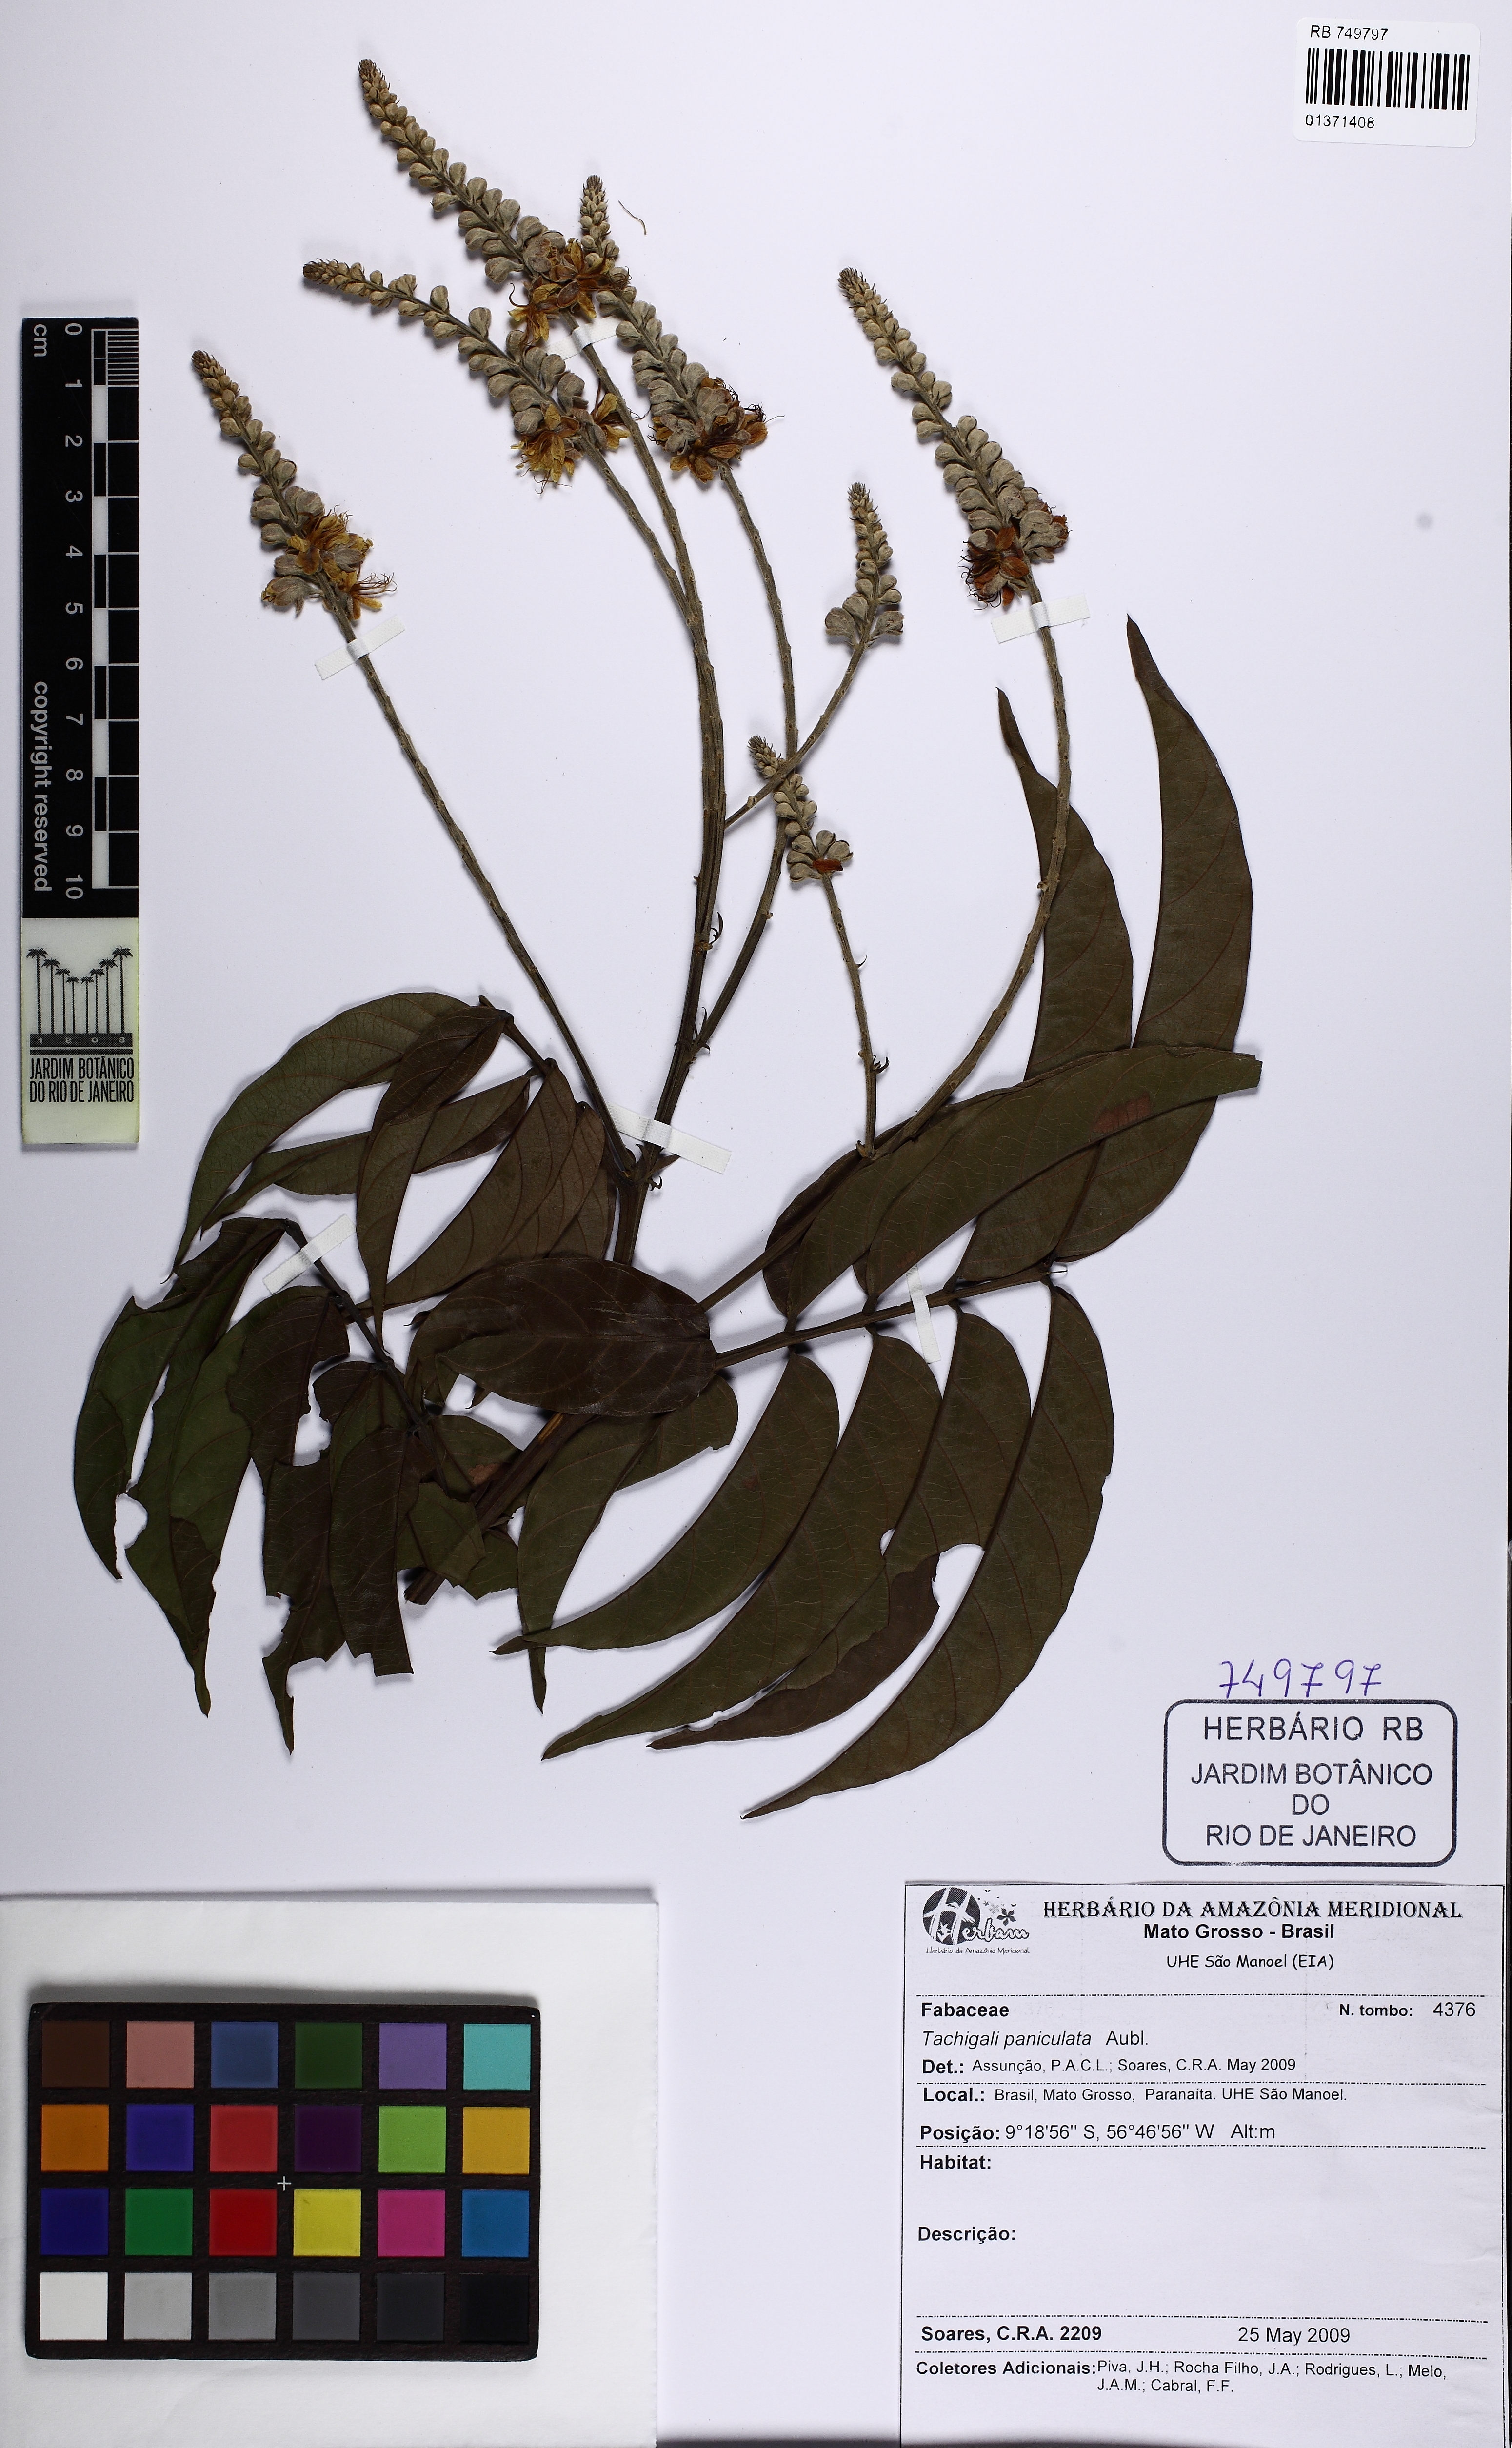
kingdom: Plantae
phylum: Tracheophyta
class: Magnoliopsida
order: Fabales
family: Fabaceae
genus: Tachigali
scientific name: Tachigali paniculata
